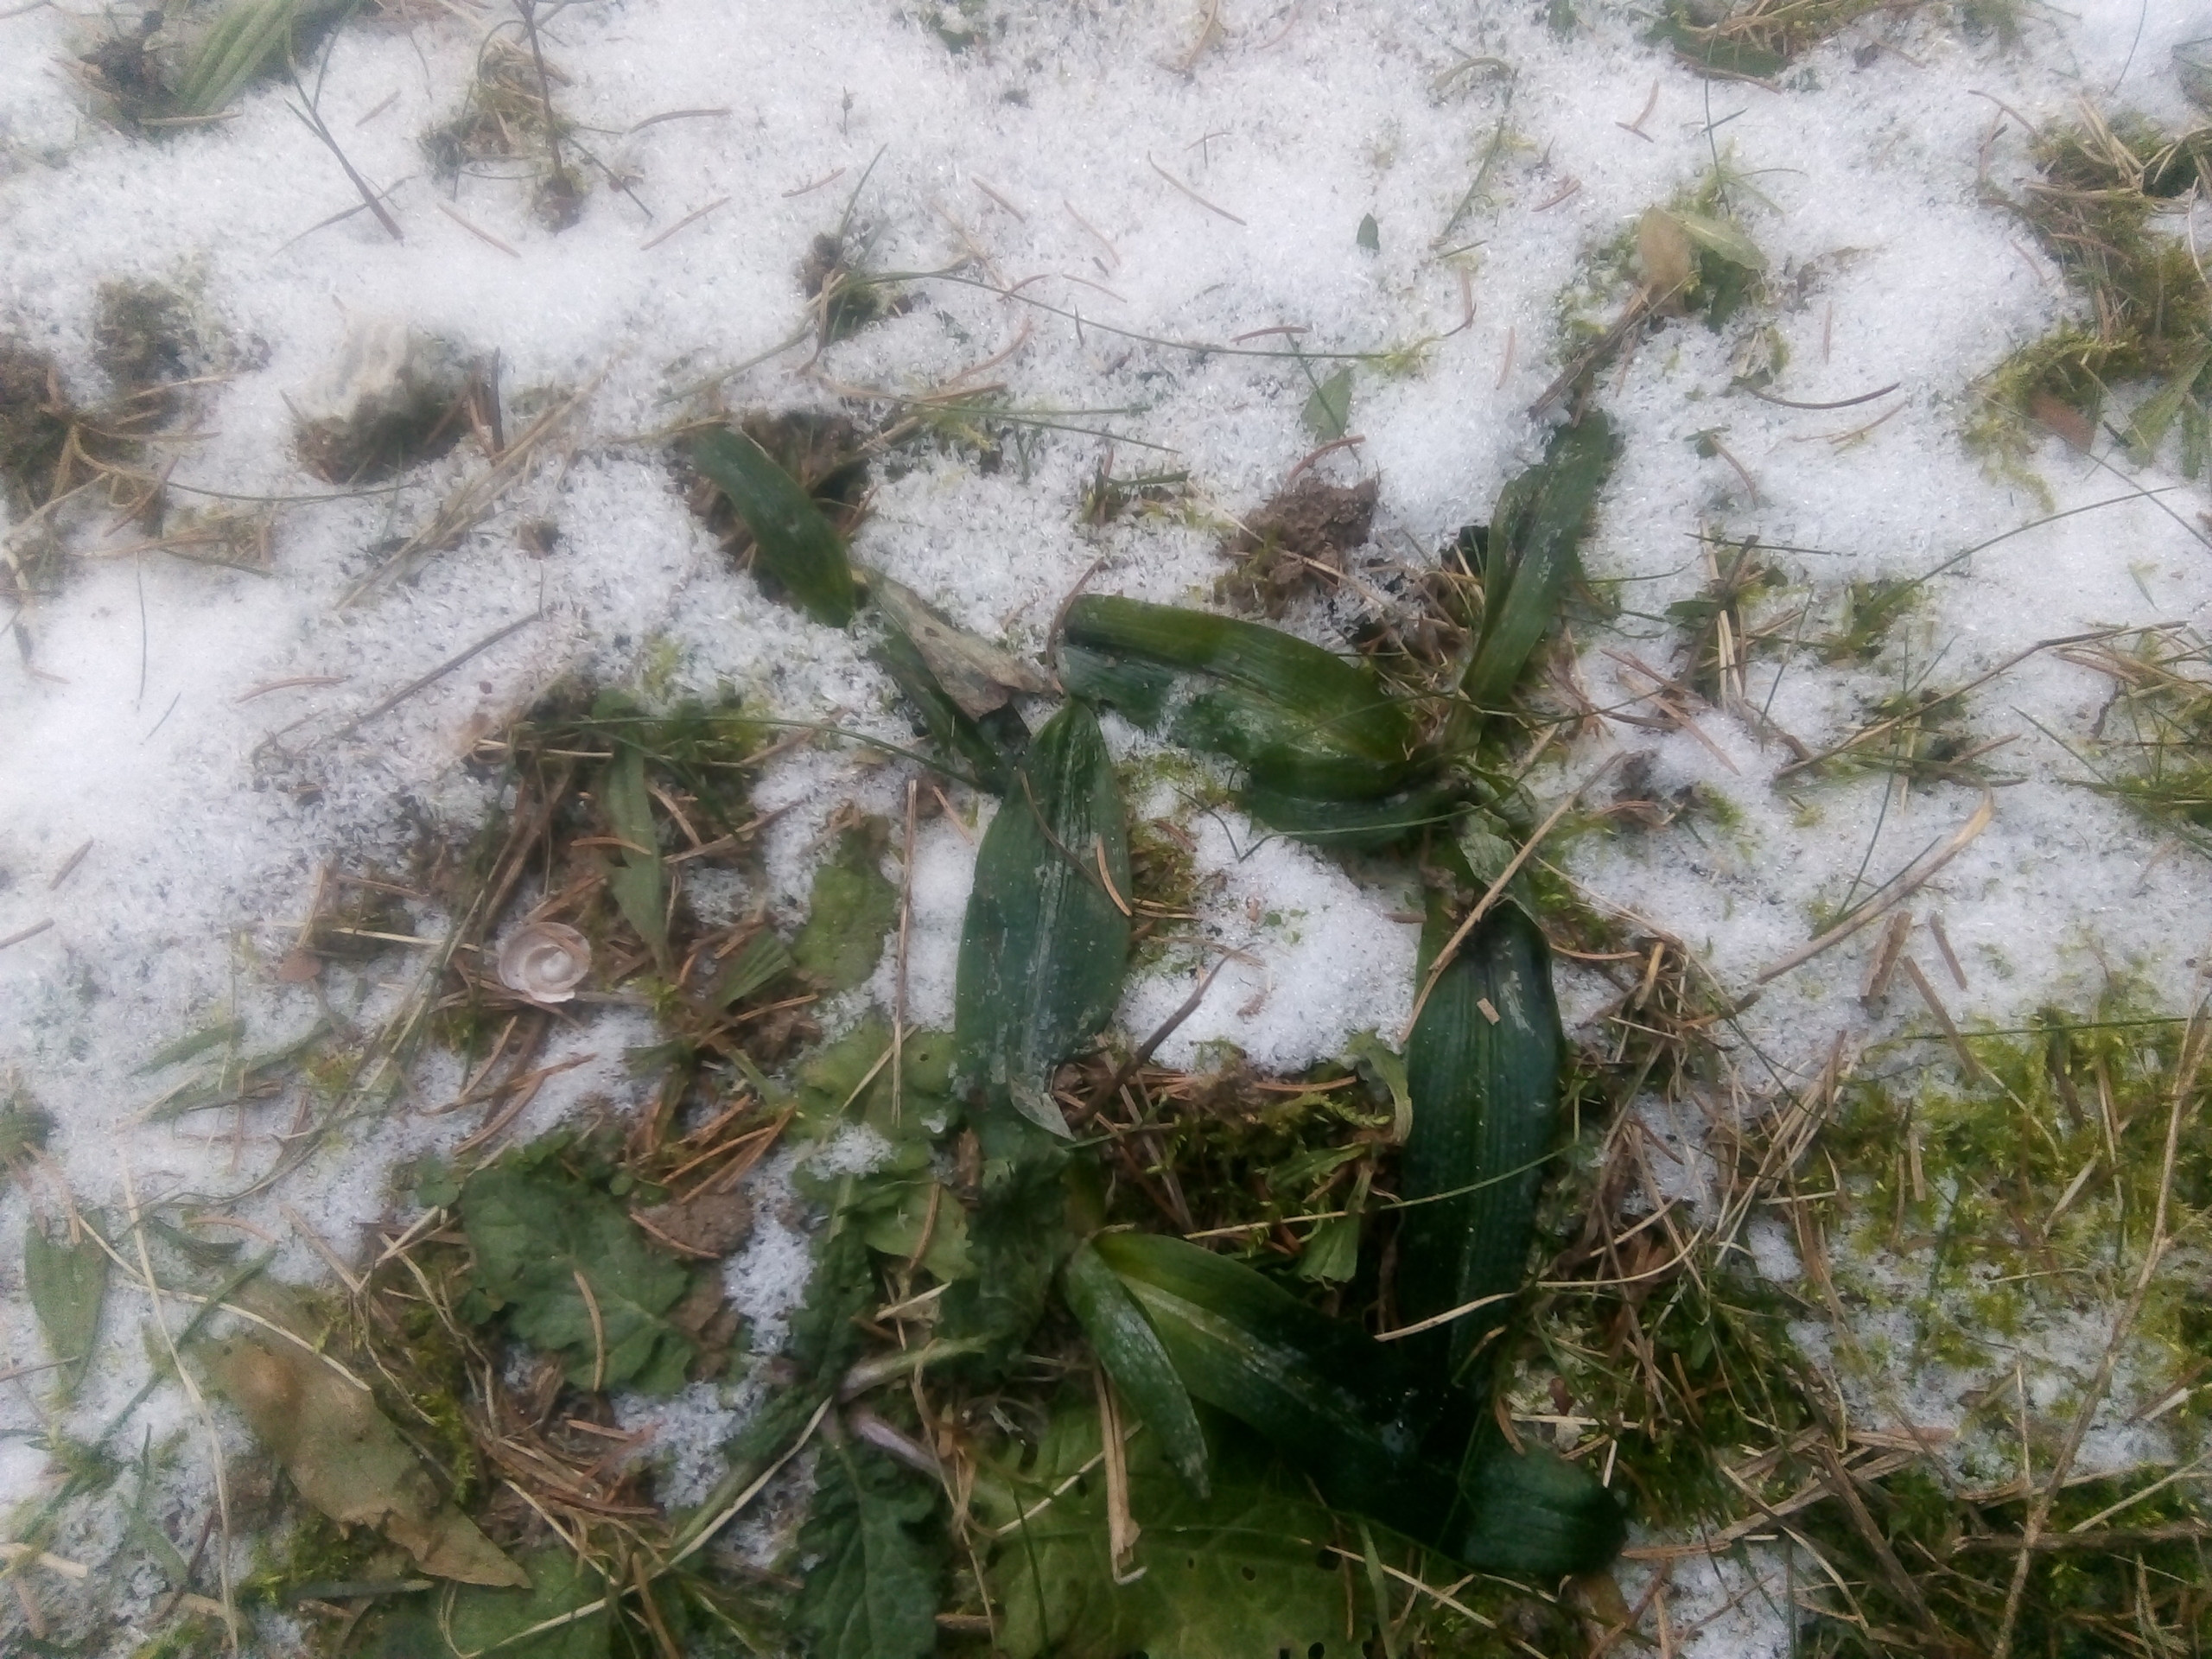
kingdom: Plantae
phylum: Tracheophyta
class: Liliopsida
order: Asparagales
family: Orchidaceae
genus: Ophrys
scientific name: Ophrys apifera
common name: Biblomst
